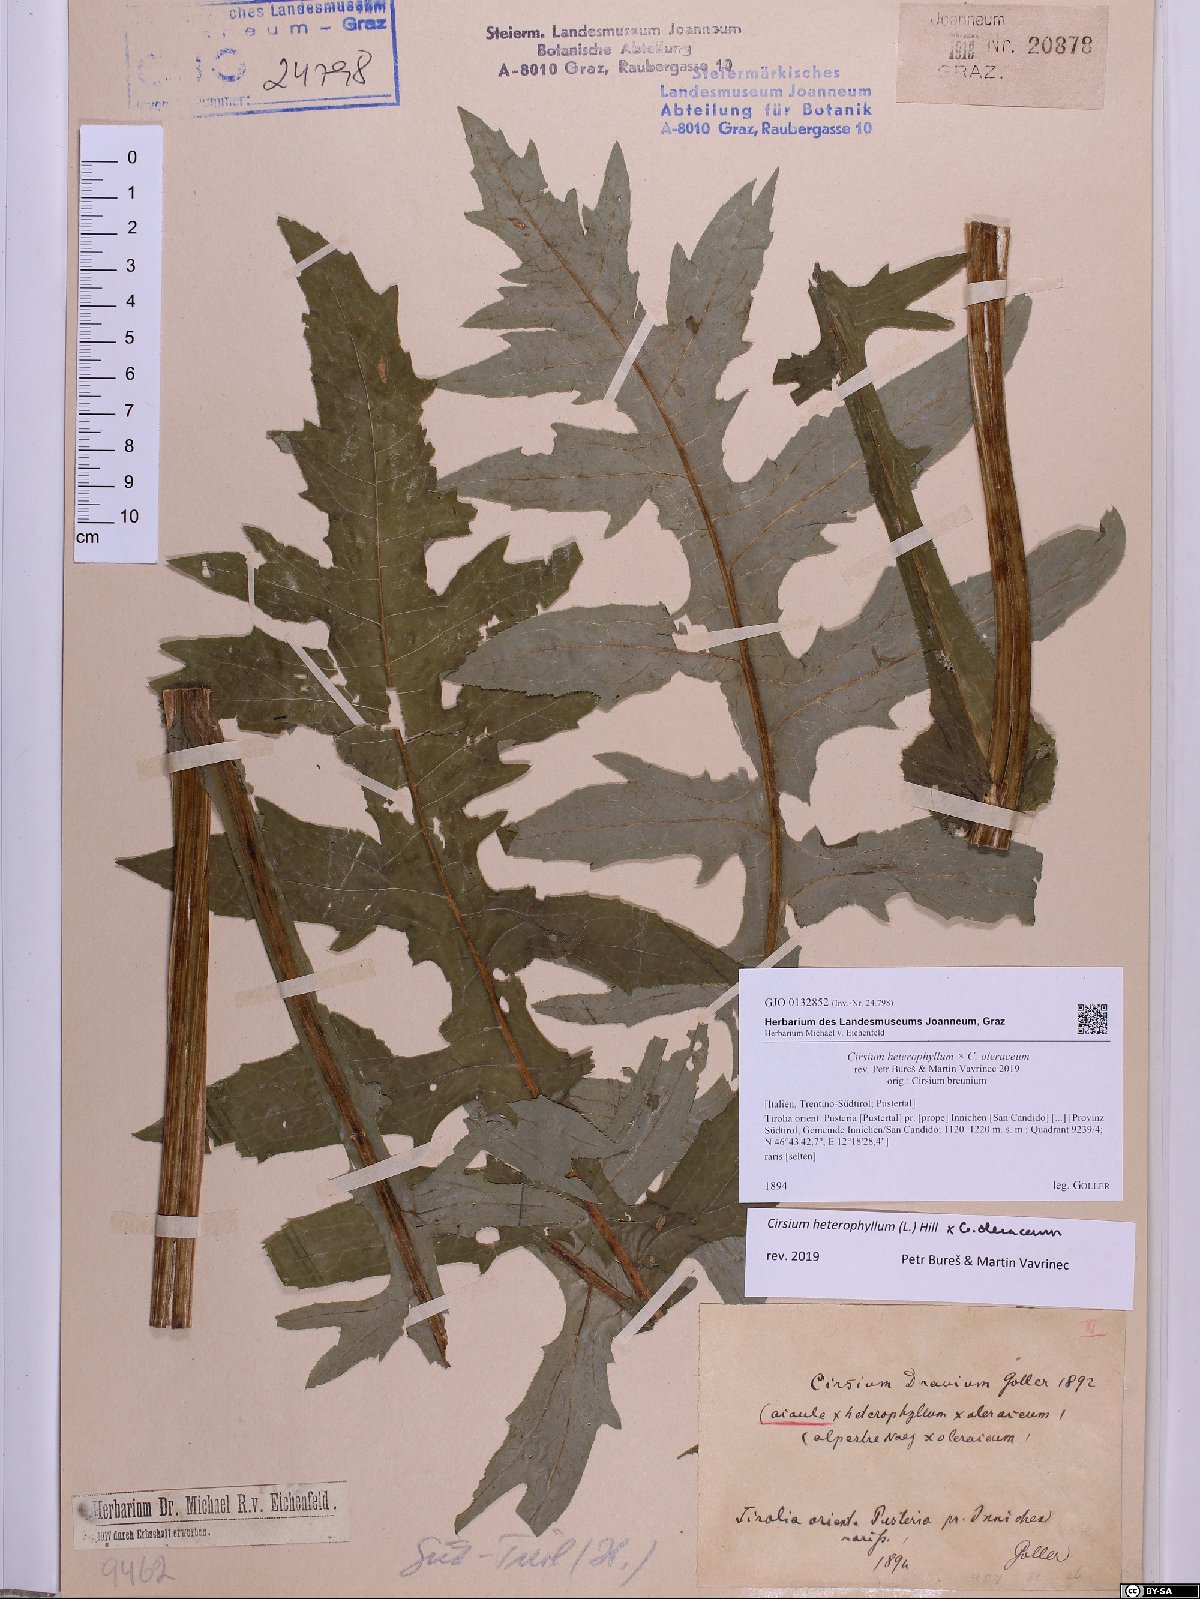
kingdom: Plantae
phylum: Tracheophyta
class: Magnoliopsida
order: Asterales
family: Asteraceae
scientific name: Asteraceae
